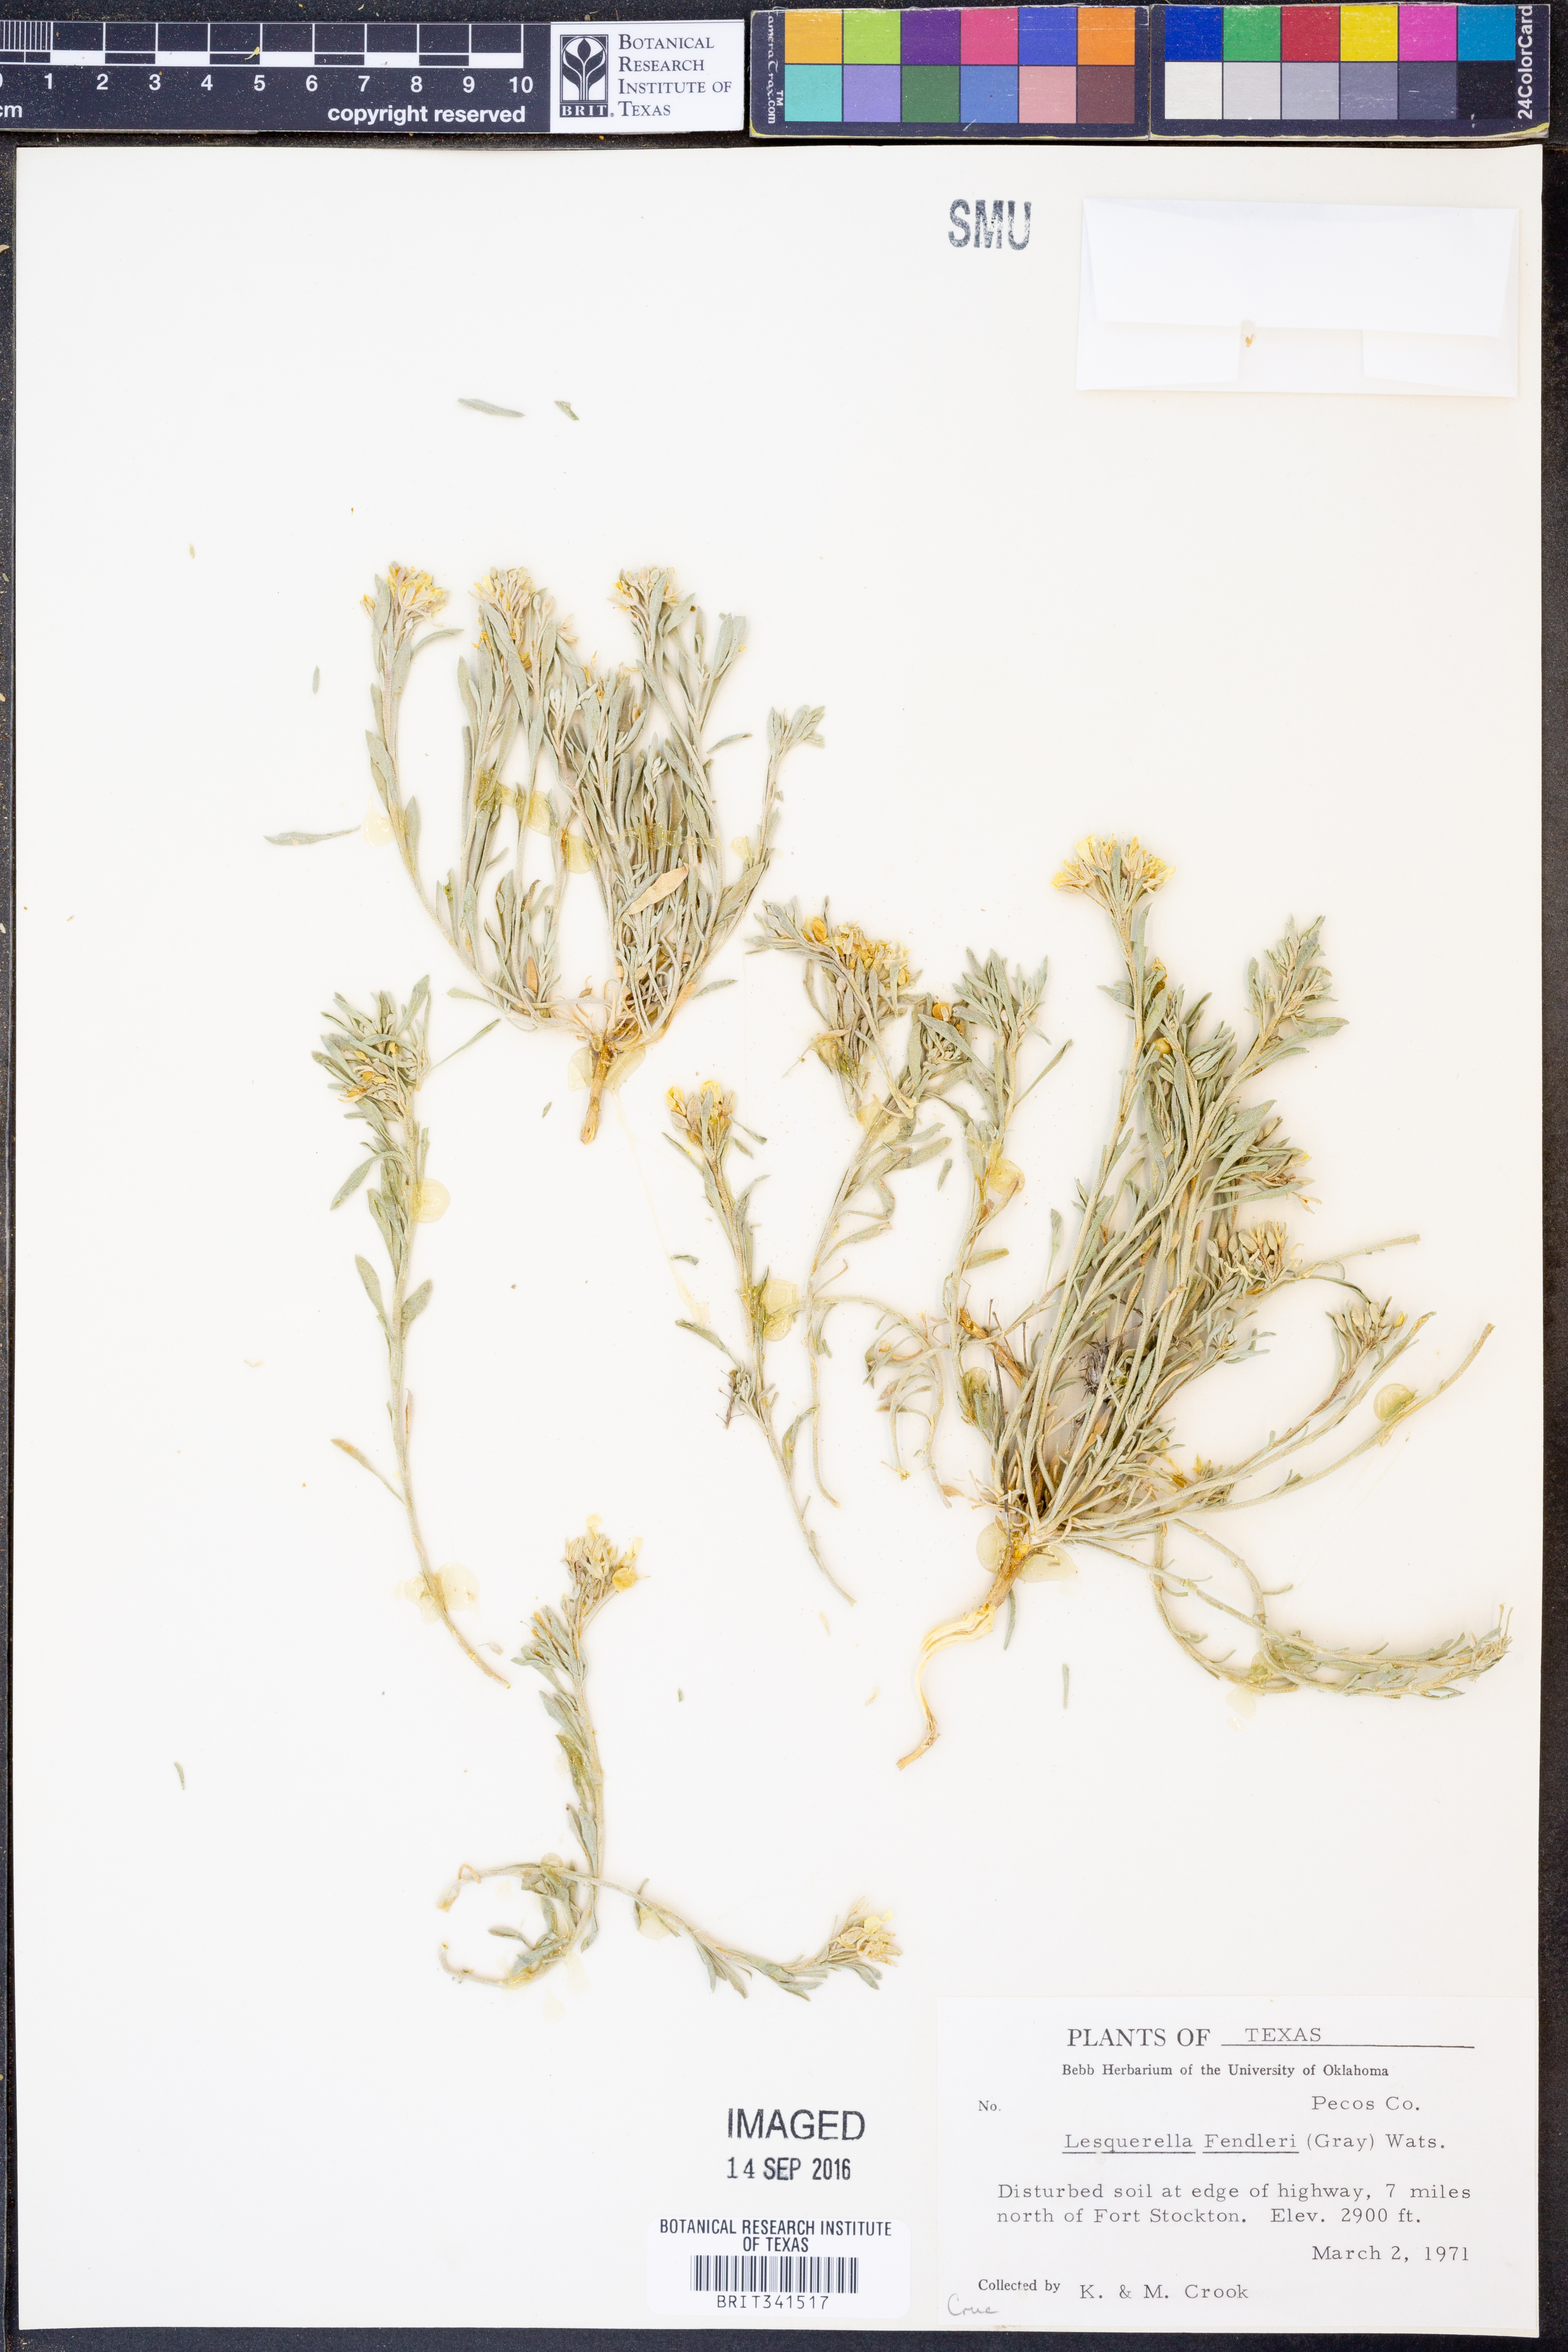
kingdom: Plantae
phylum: Tracheophyta
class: Magnoliopsida
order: Brassicales
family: Brassicaceae
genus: Physaria
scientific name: Physaria fendleri
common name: Fendler's bladderpod
